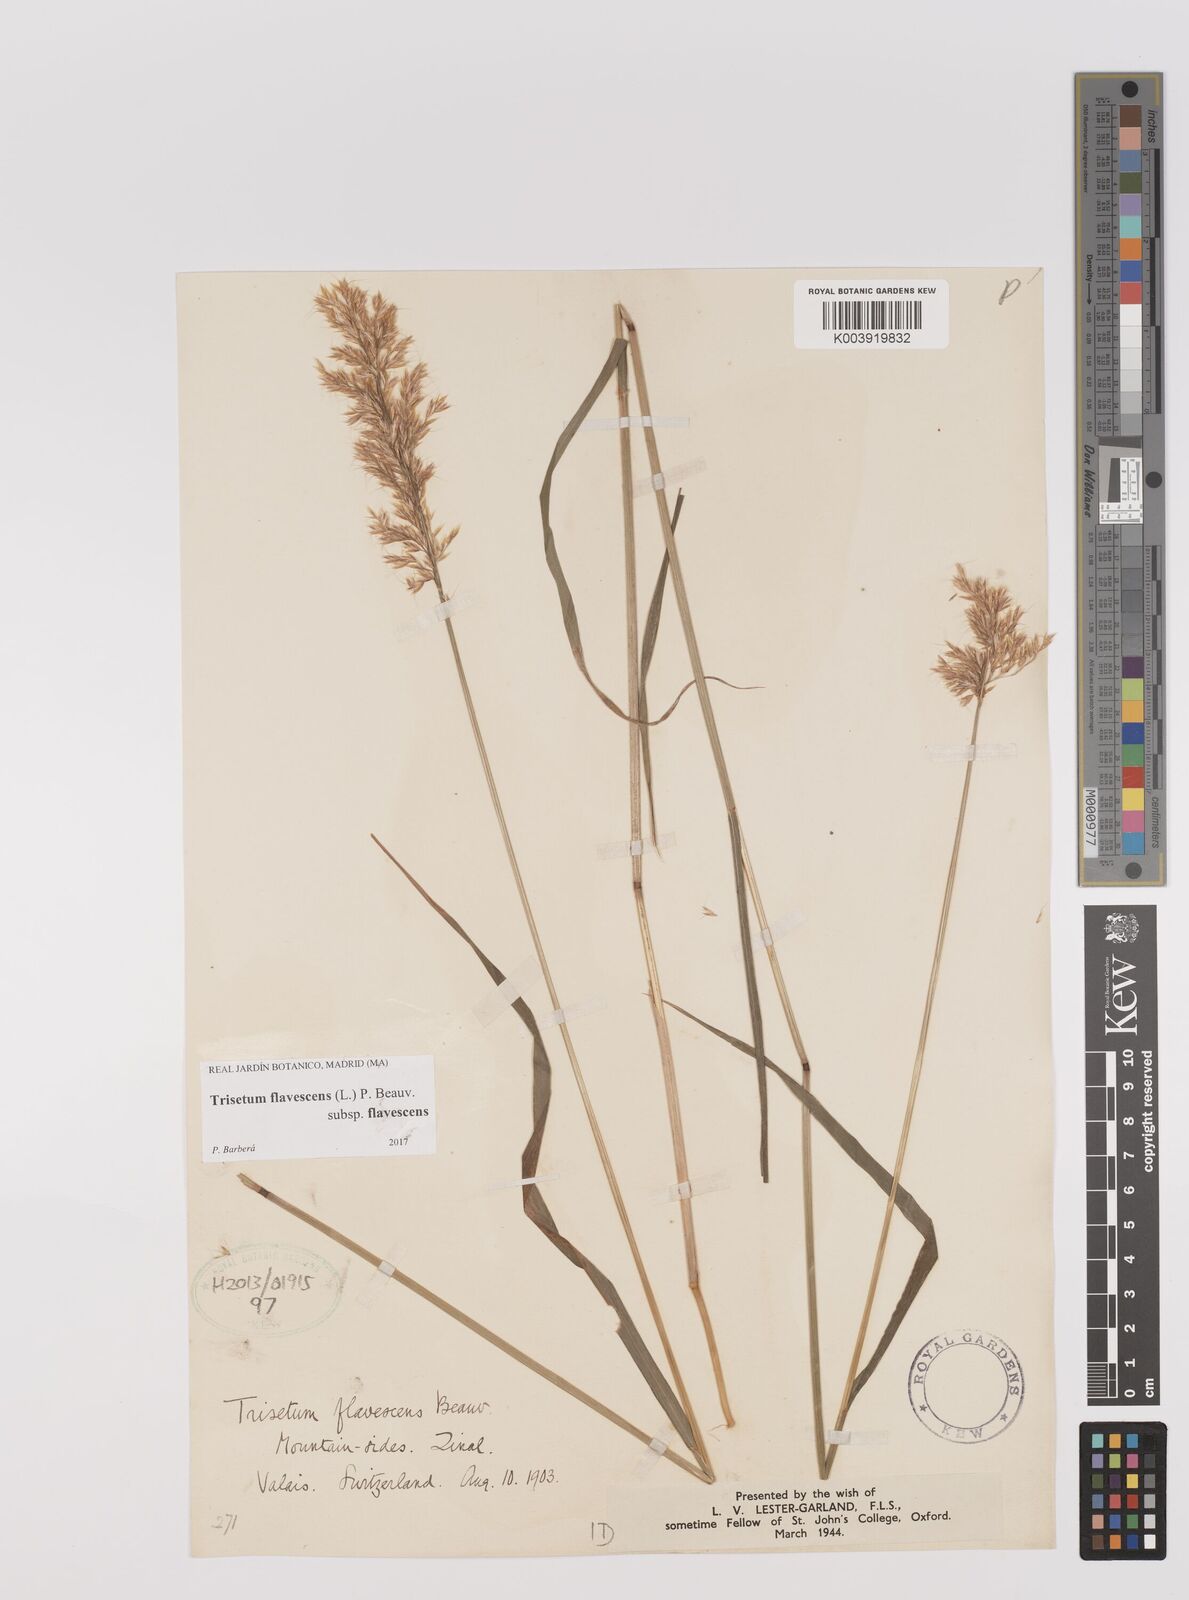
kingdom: Plantae
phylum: Tracheophyta
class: Liliopsida
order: Poales
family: Poaceae
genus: Trisetum
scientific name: Trisetum flavescens
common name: Yellow oat-grass
